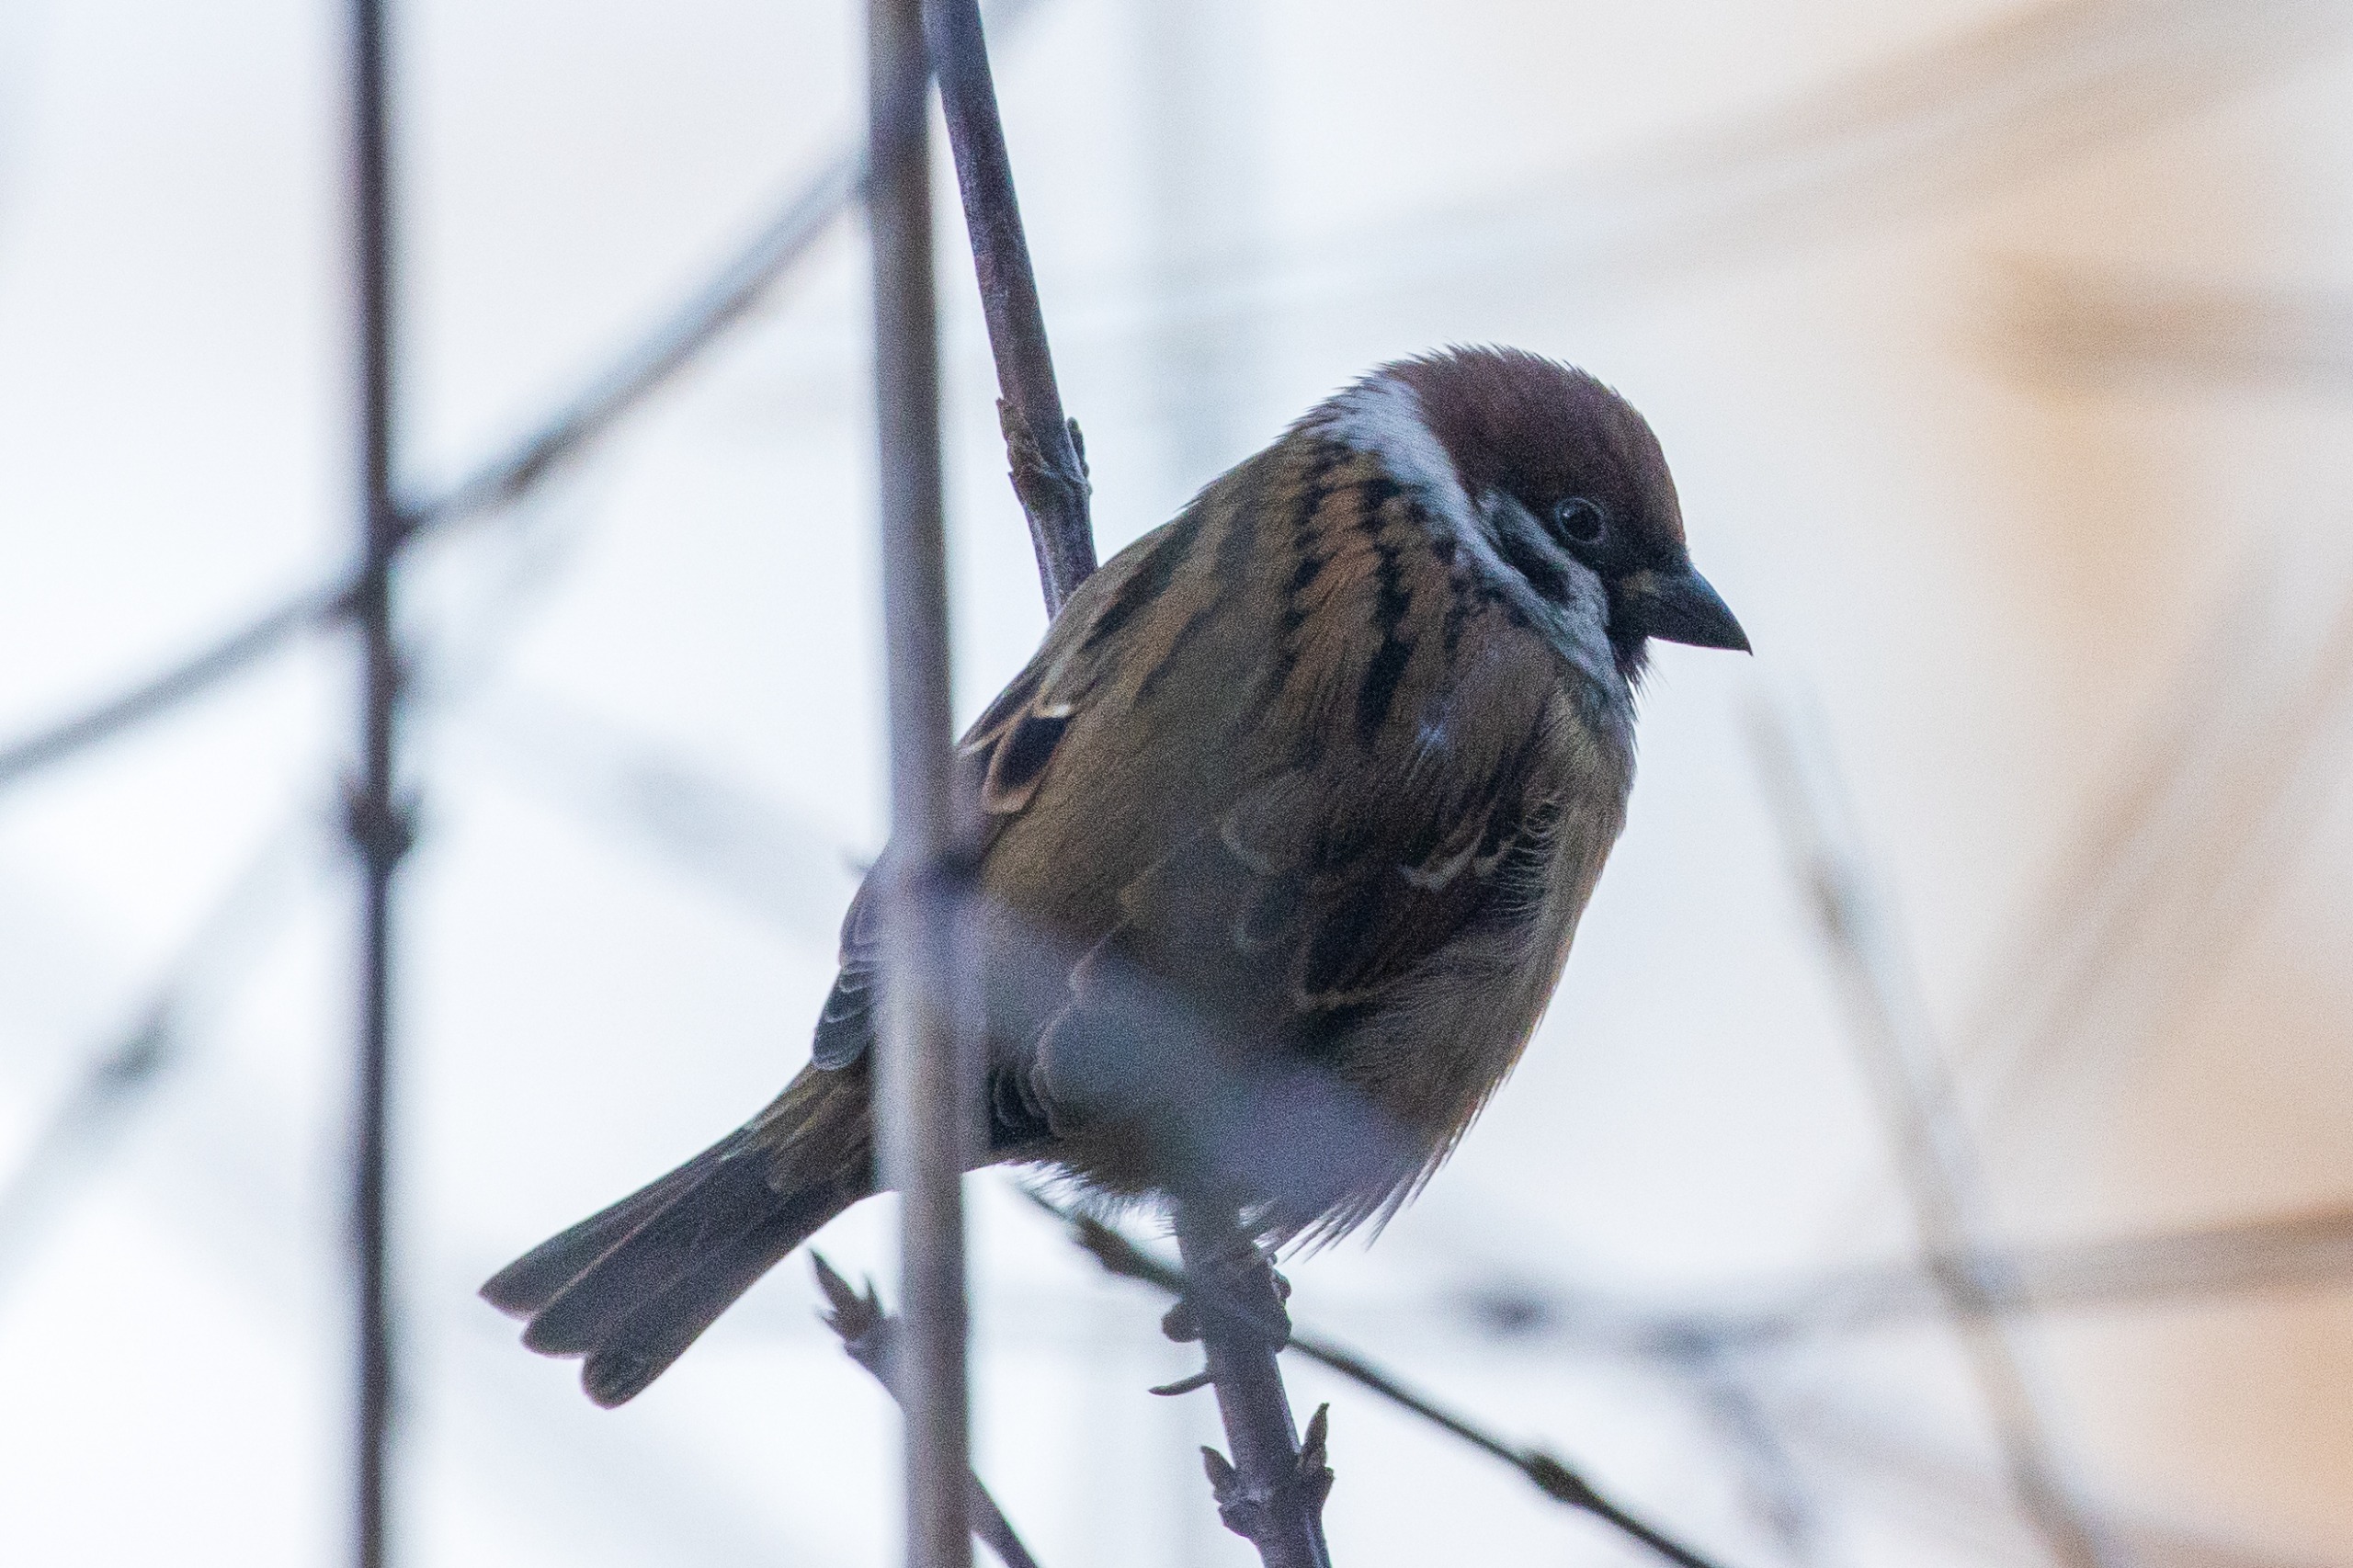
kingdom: Animalia
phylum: Chordata
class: Aves
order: Passeriformes
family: Passeridae
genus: Passer
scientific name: Passer montanus
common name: Skovspurv
